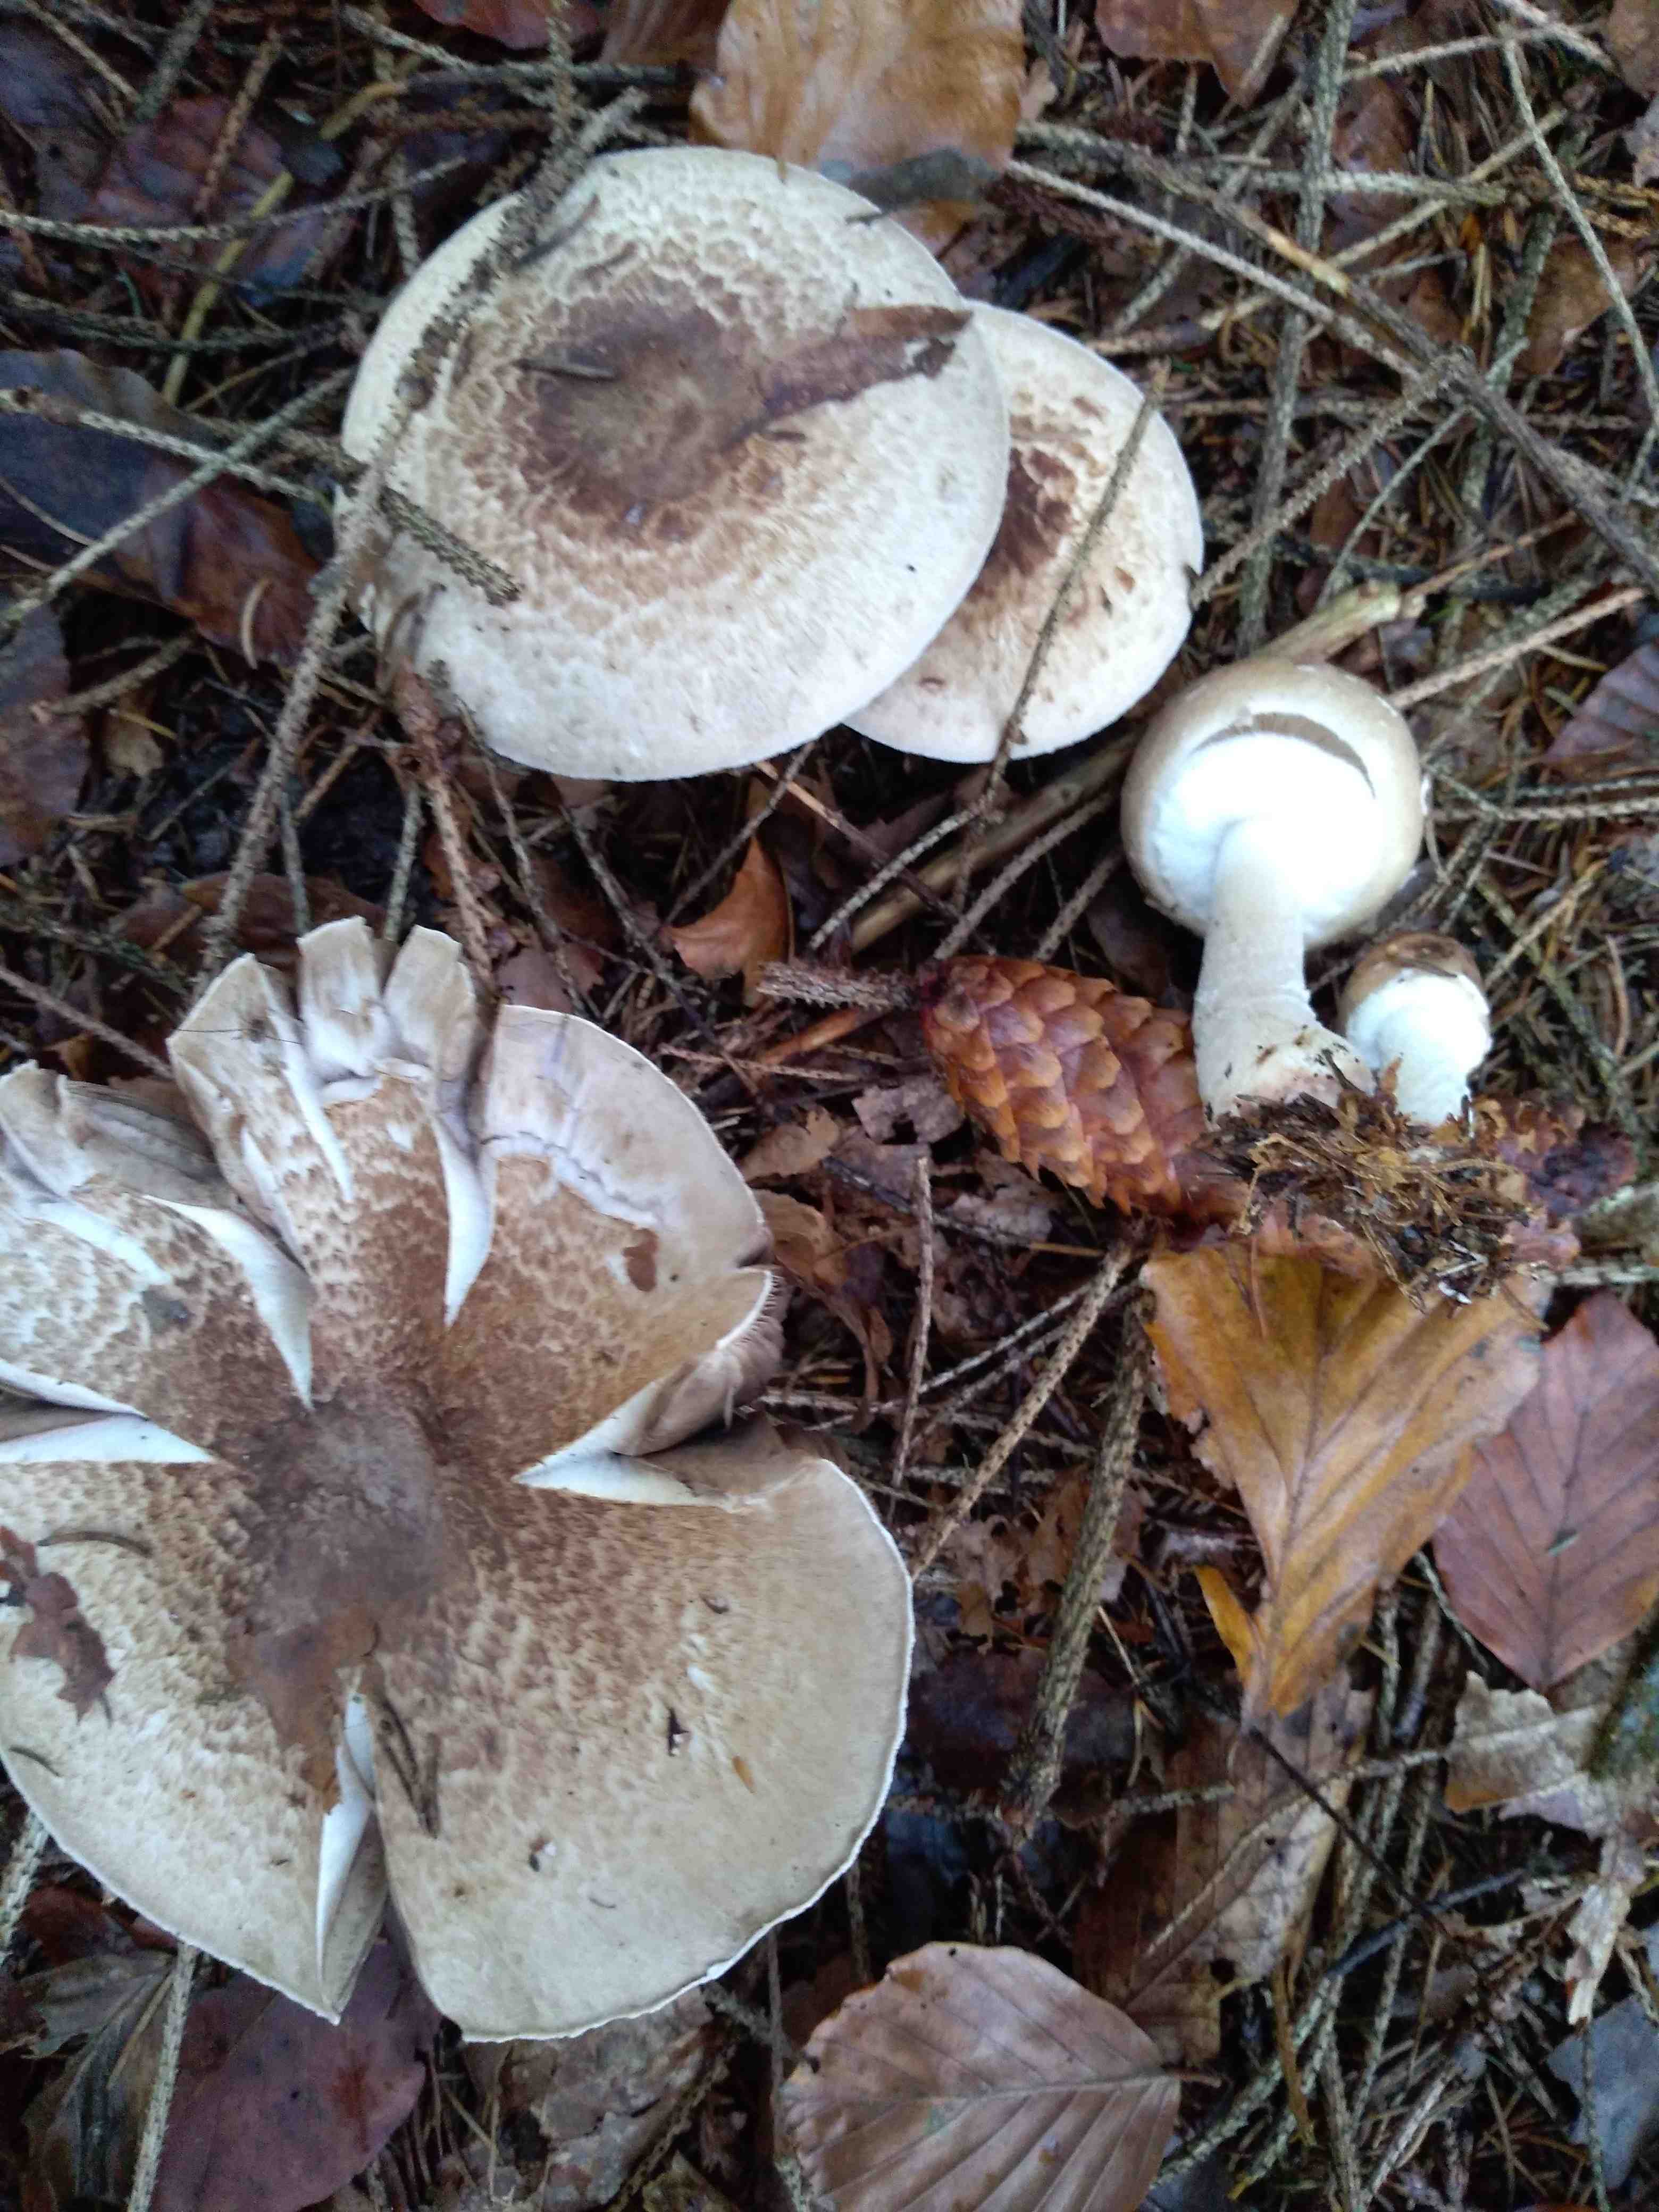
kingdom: Fungi
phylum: Basidiomycota
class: Agaricomycetes
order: Agaricales
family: Agaricaceae
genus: Agaricus
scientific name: Agaricus impudicus
